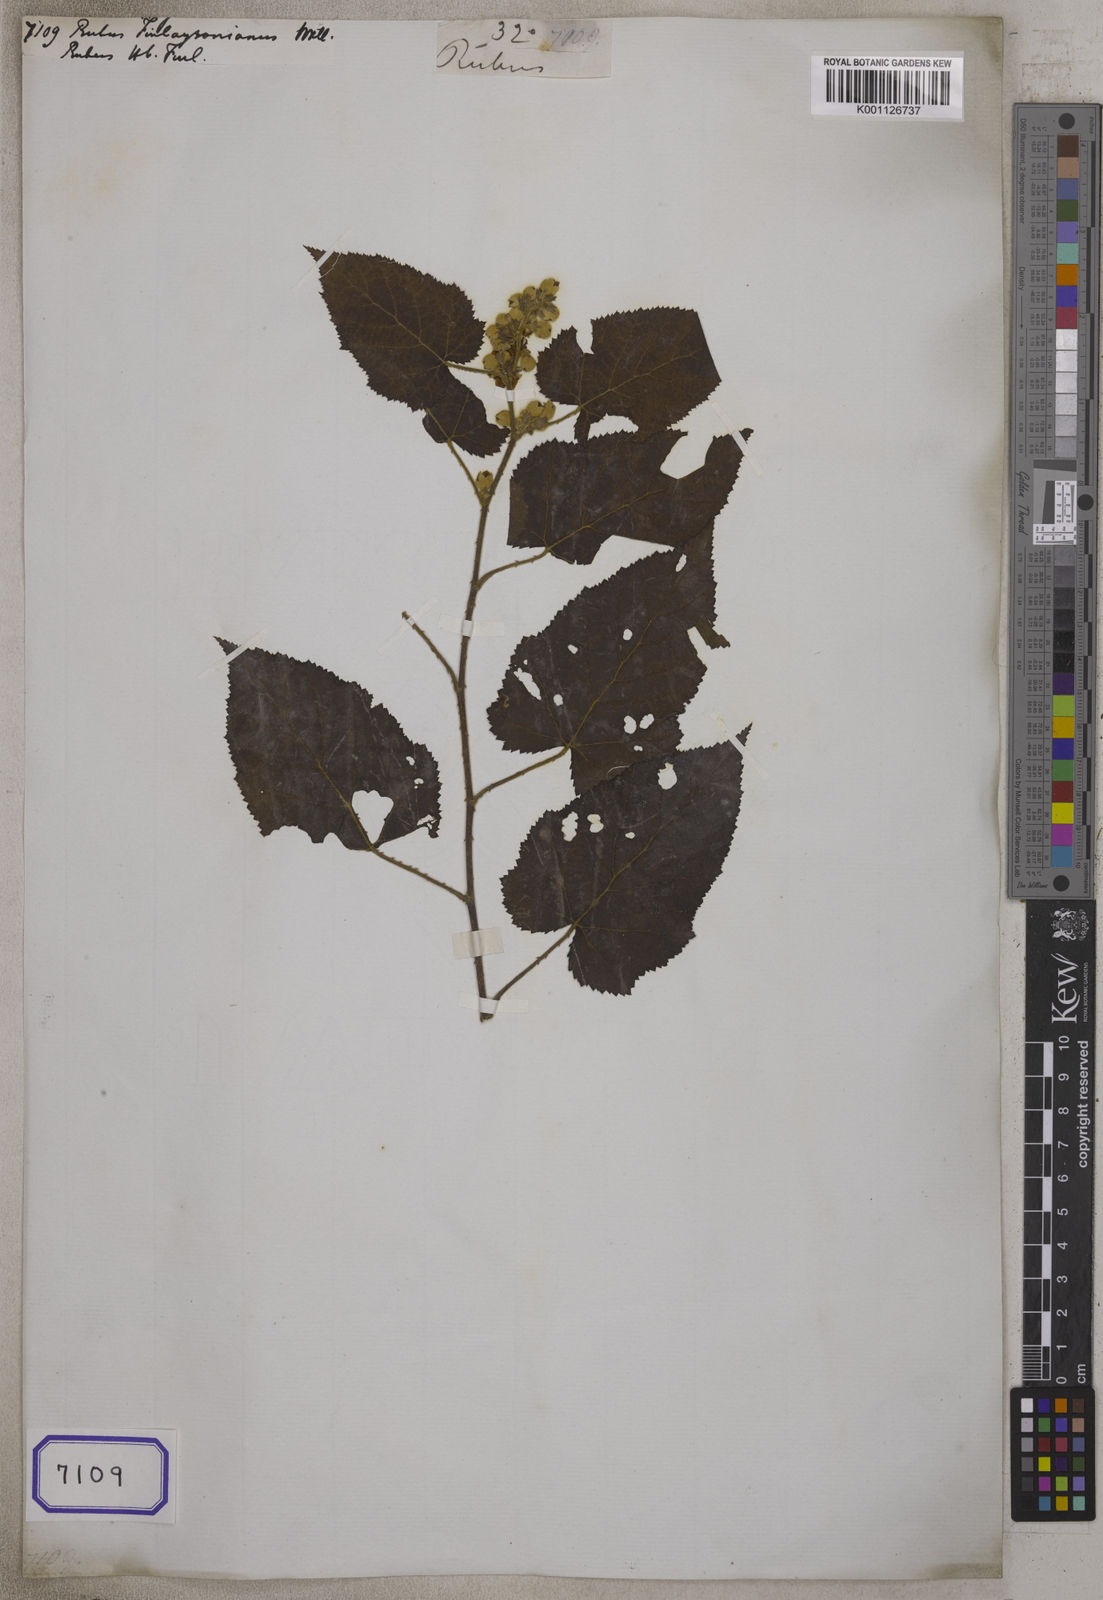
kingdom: Plantae
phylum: Tracheophyta
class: Magnoliopsida
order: Rosales
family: Rosaceae
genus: Rubus
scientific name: Rubus finlaysonianus
